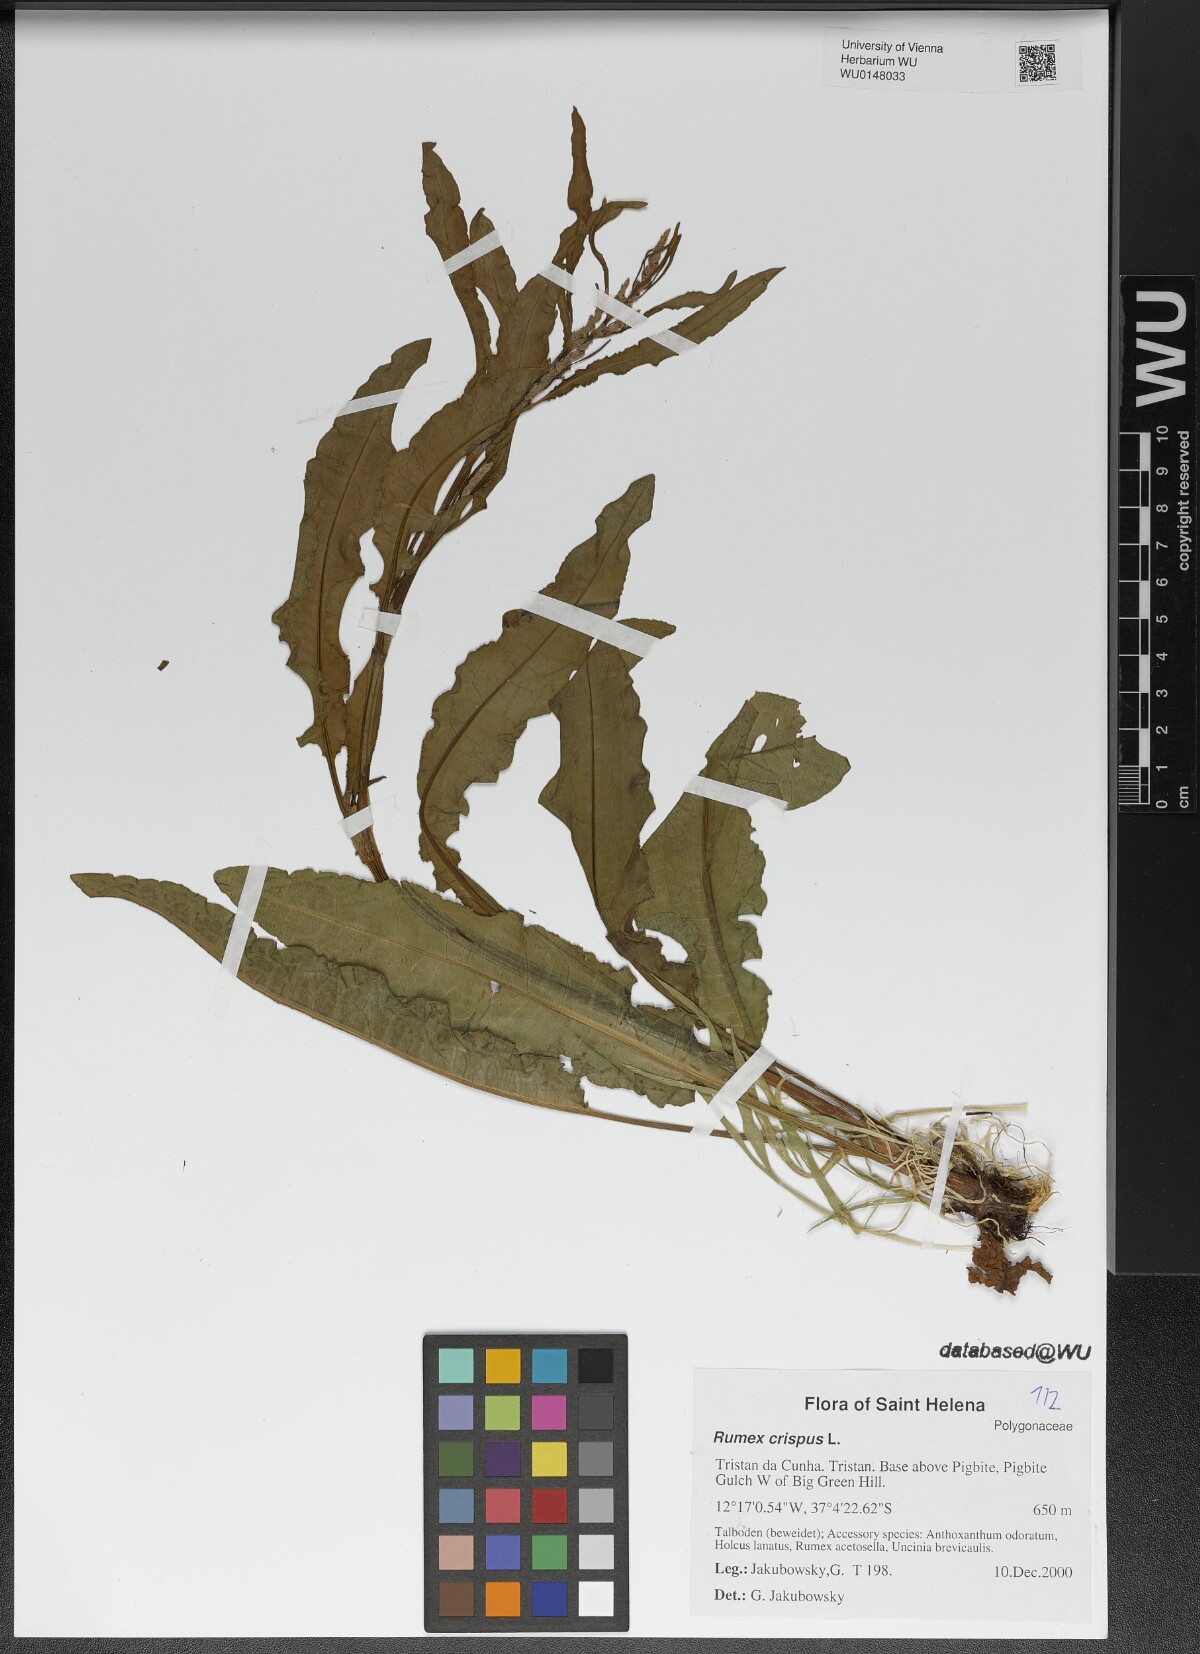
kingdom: Plantae
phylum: Tracheophyta
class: Magnoliopsida
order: Caryophyllales
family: Polygonaceae
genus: Rumex
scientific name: Rumex crispus
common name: Curled dock
